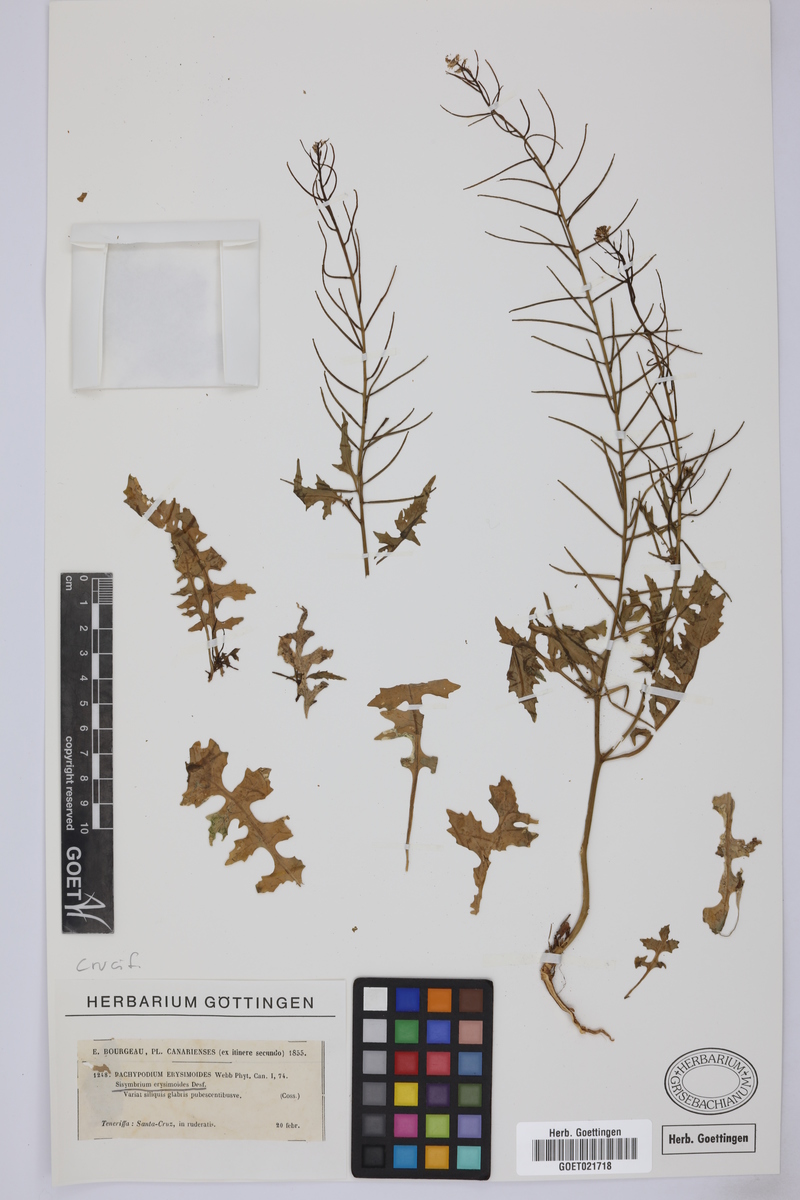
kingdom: Plantae
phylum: Tracheophyta
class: Magnoliopsida
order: Brassicales
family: Brassicaceae
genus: Sisymbrium
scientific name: Sisymbrium erysimoides
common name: French rocket
